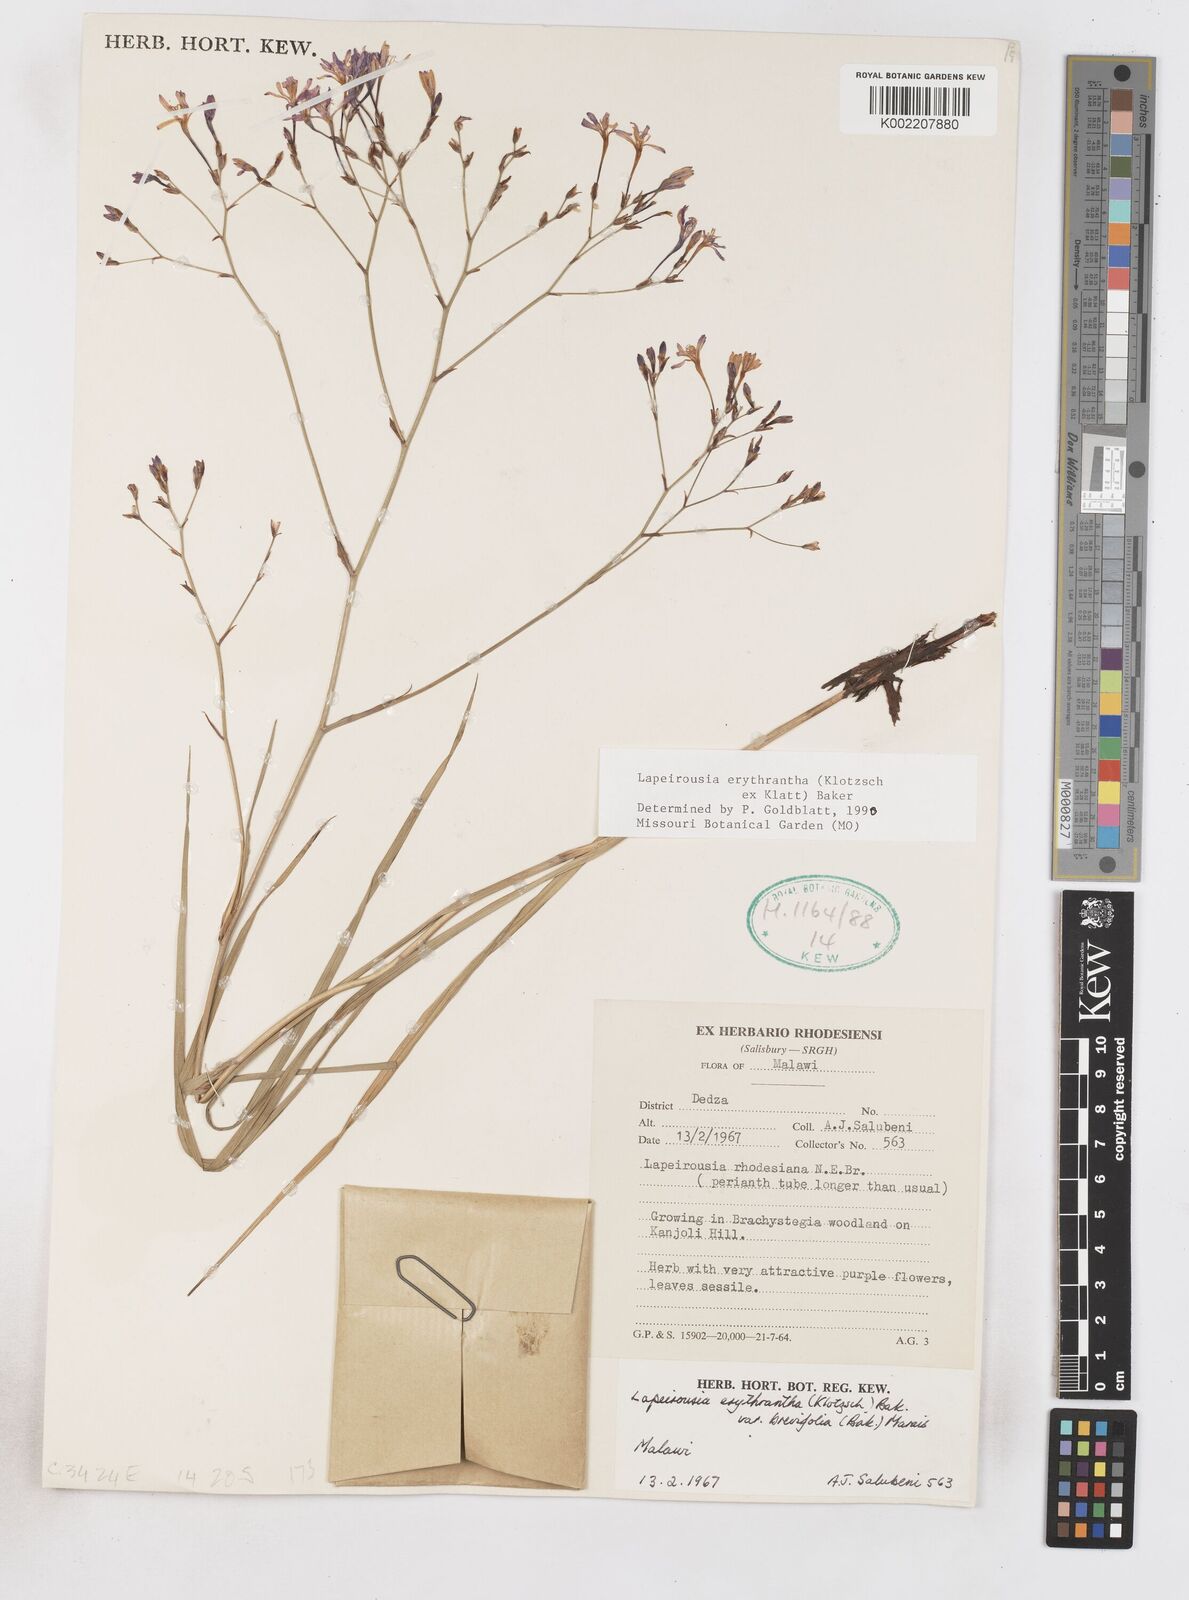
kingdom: Plantae
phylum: Tracheophyta
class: Liliopsida
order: Asparagales
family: Iridaceae
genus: Afrosolen
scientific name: Afrosolen erythranthus
